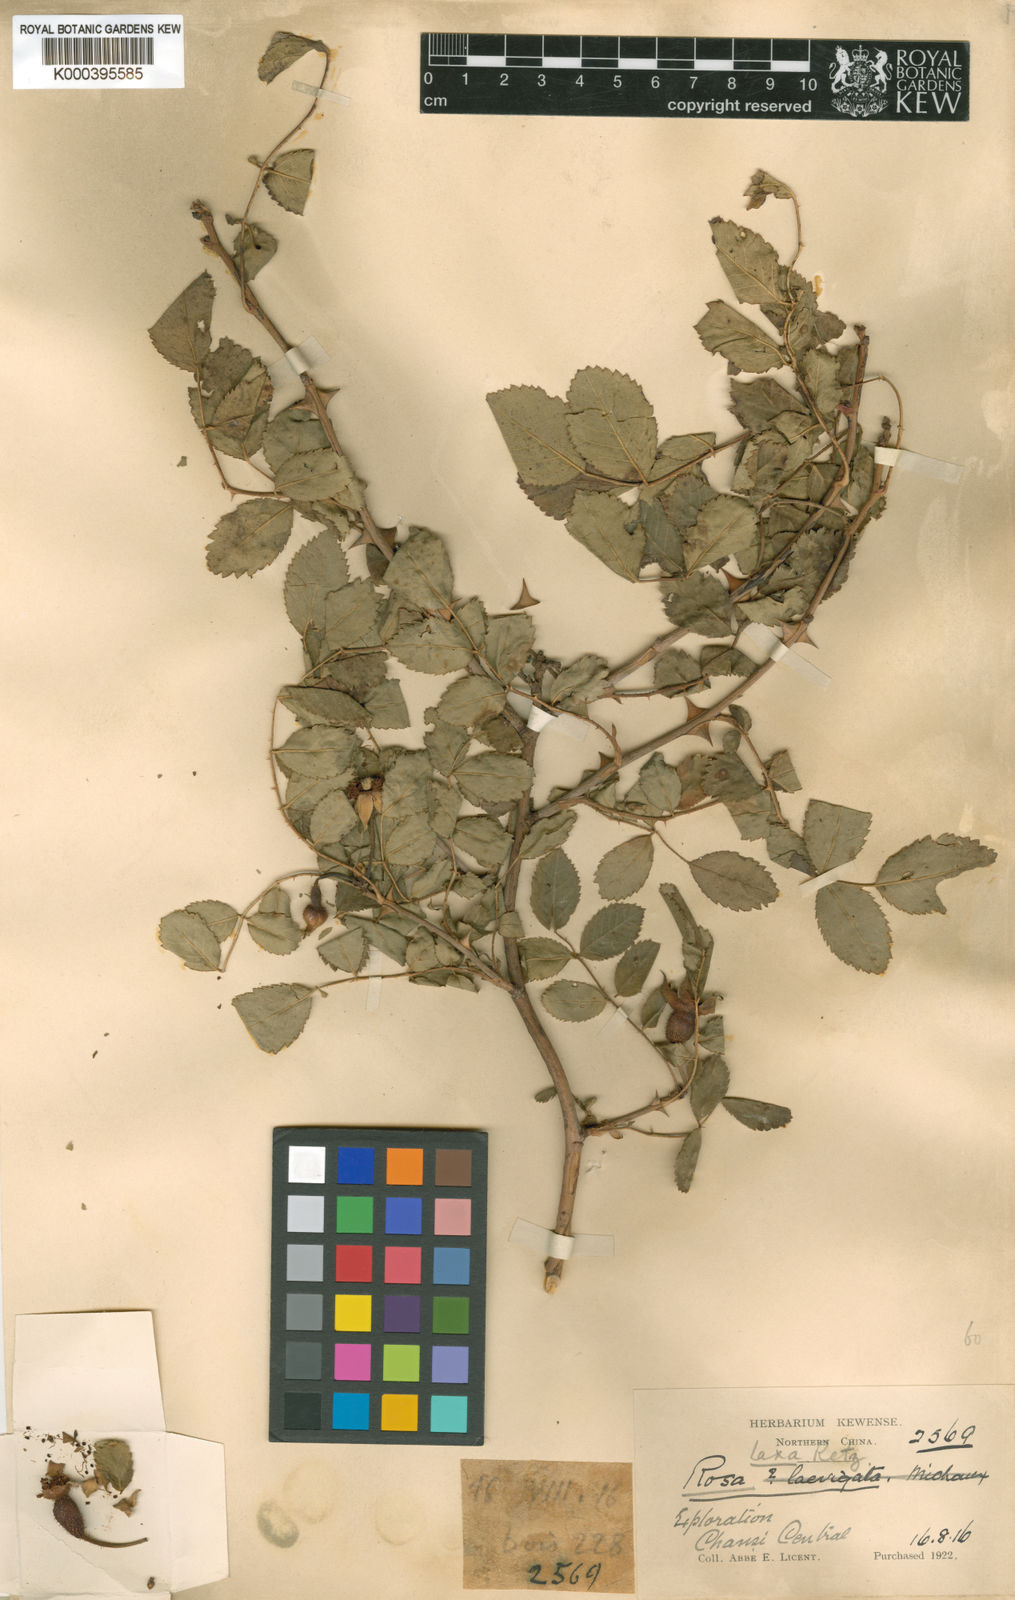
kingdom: Plantae
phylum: Tracheophyta
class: Magnoliopsida
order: Rosales
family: Rosaceae
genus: Rosa
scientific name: Rosa laxa
